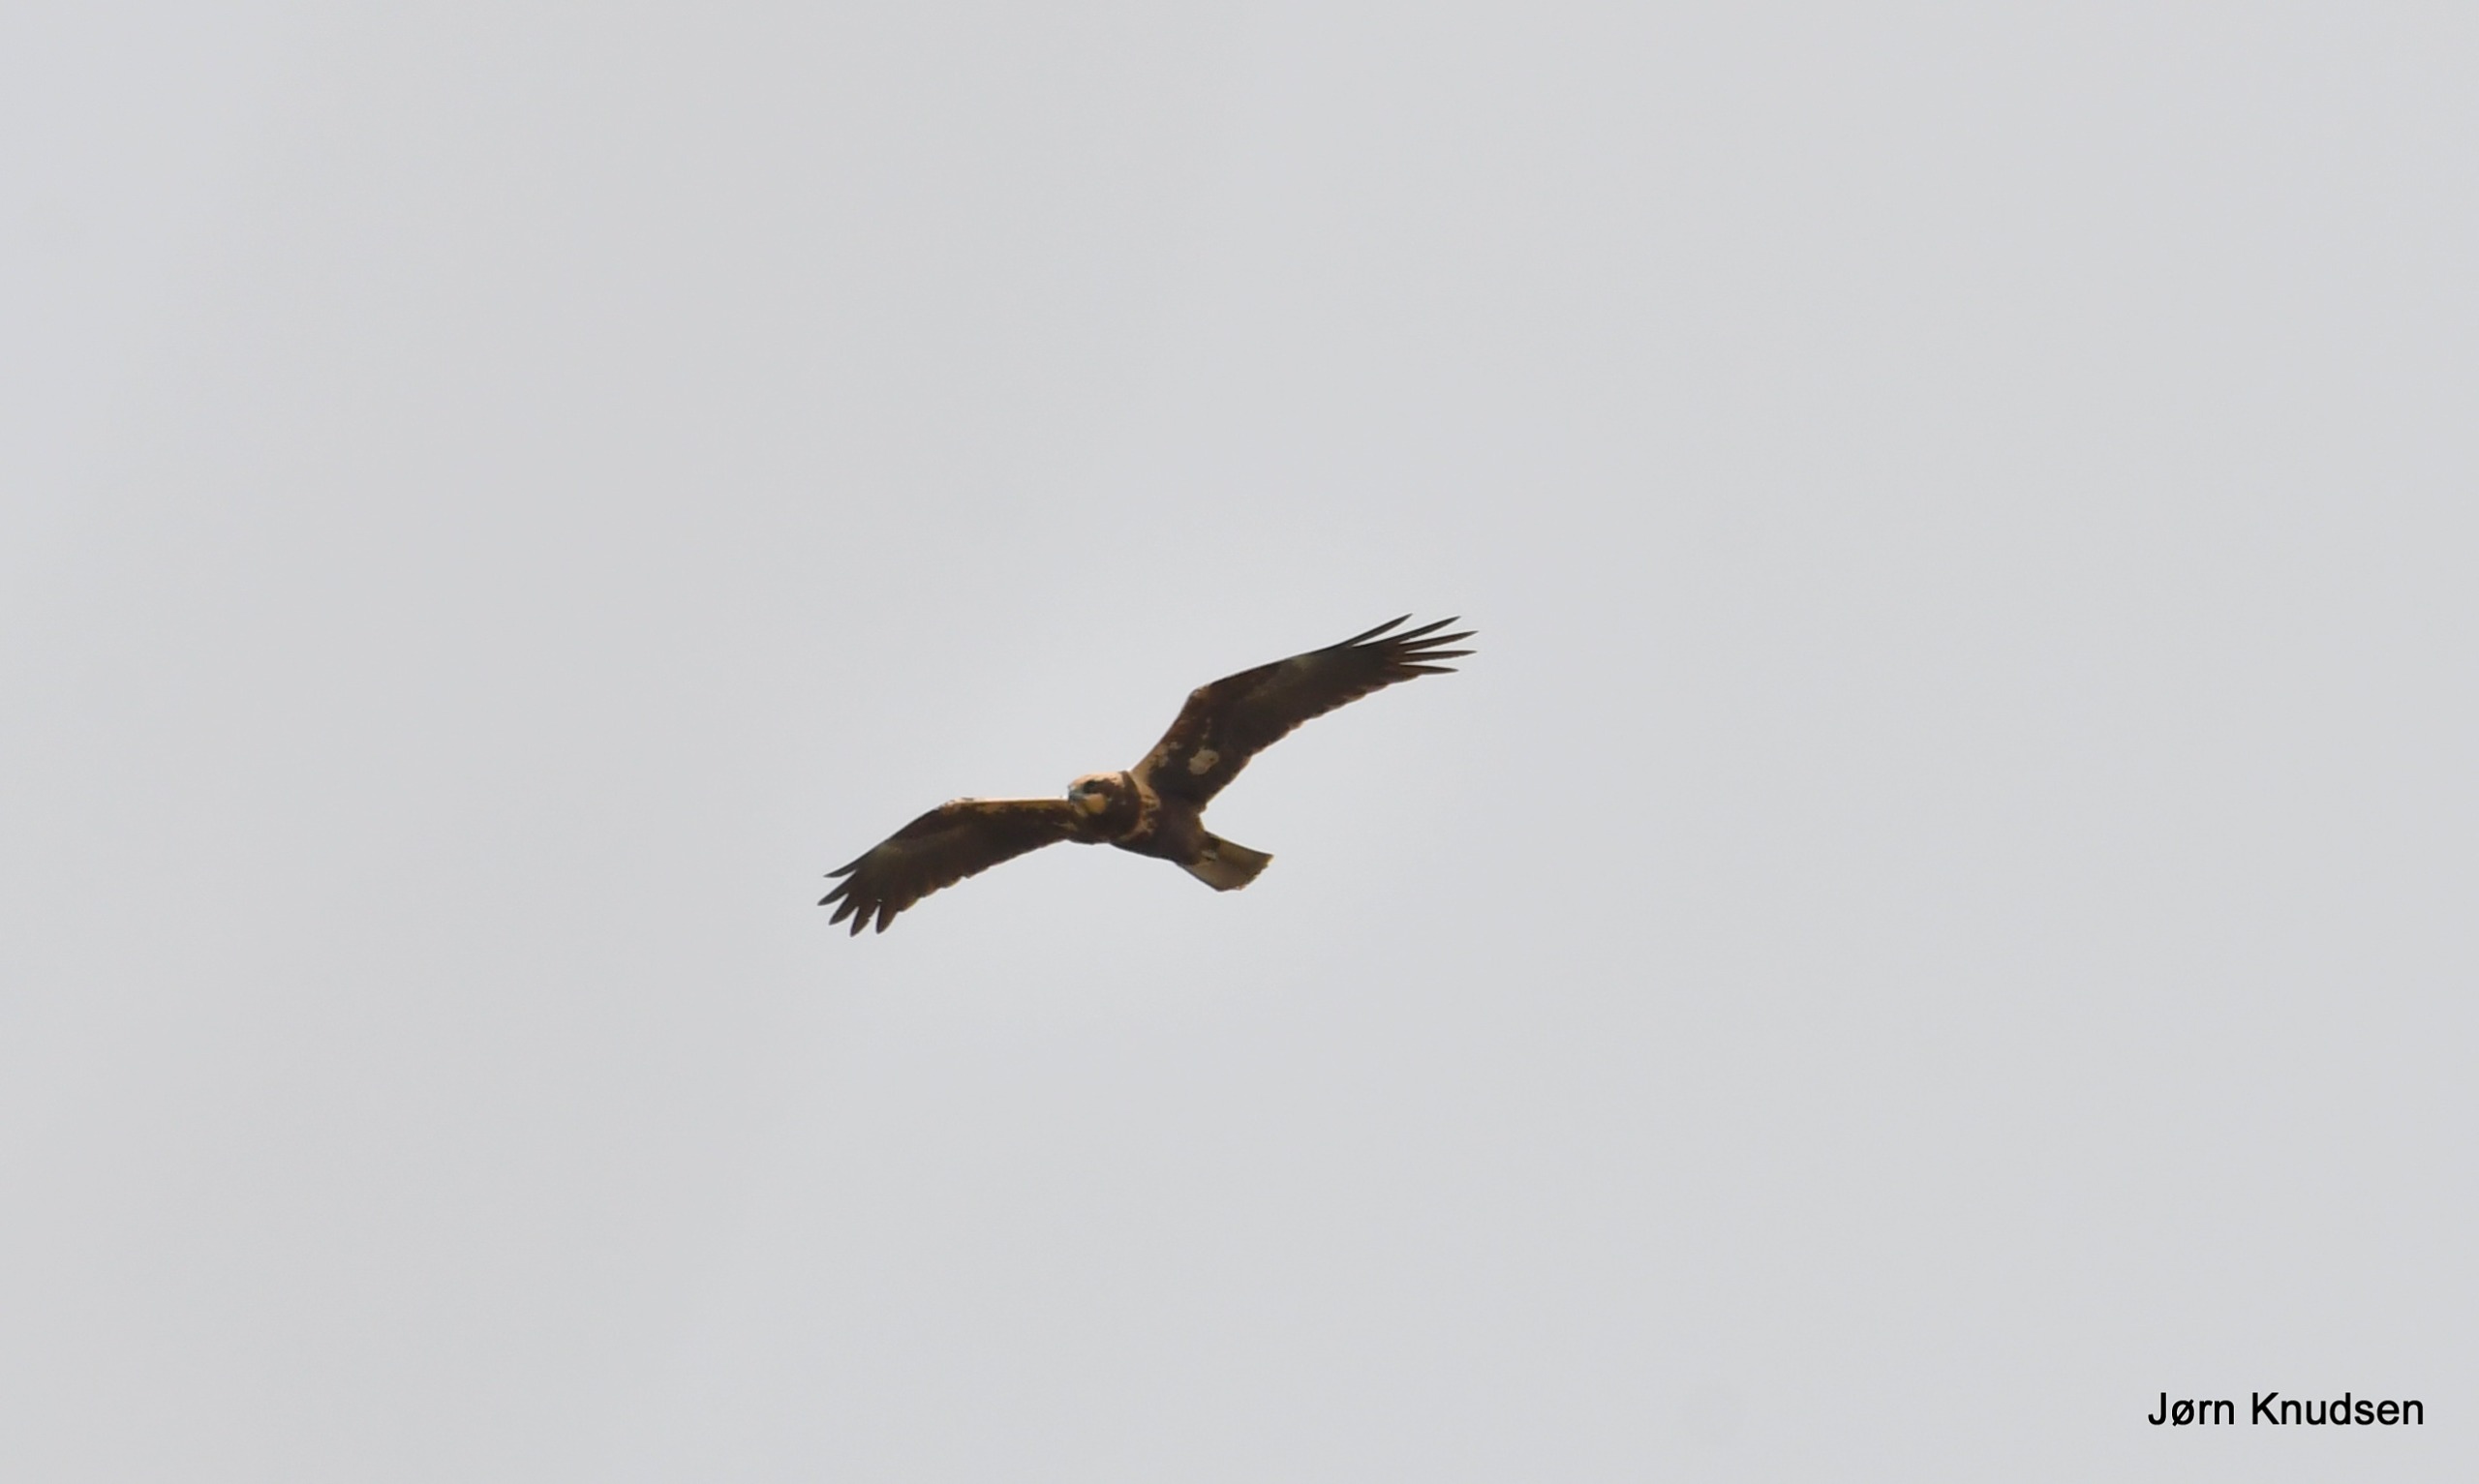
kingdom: Animalia
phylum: Chordata
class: Aves
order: Accipitriformes
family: Accipitridae
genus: Circus
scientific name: Circus aeruginosus
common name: Rørhøg
